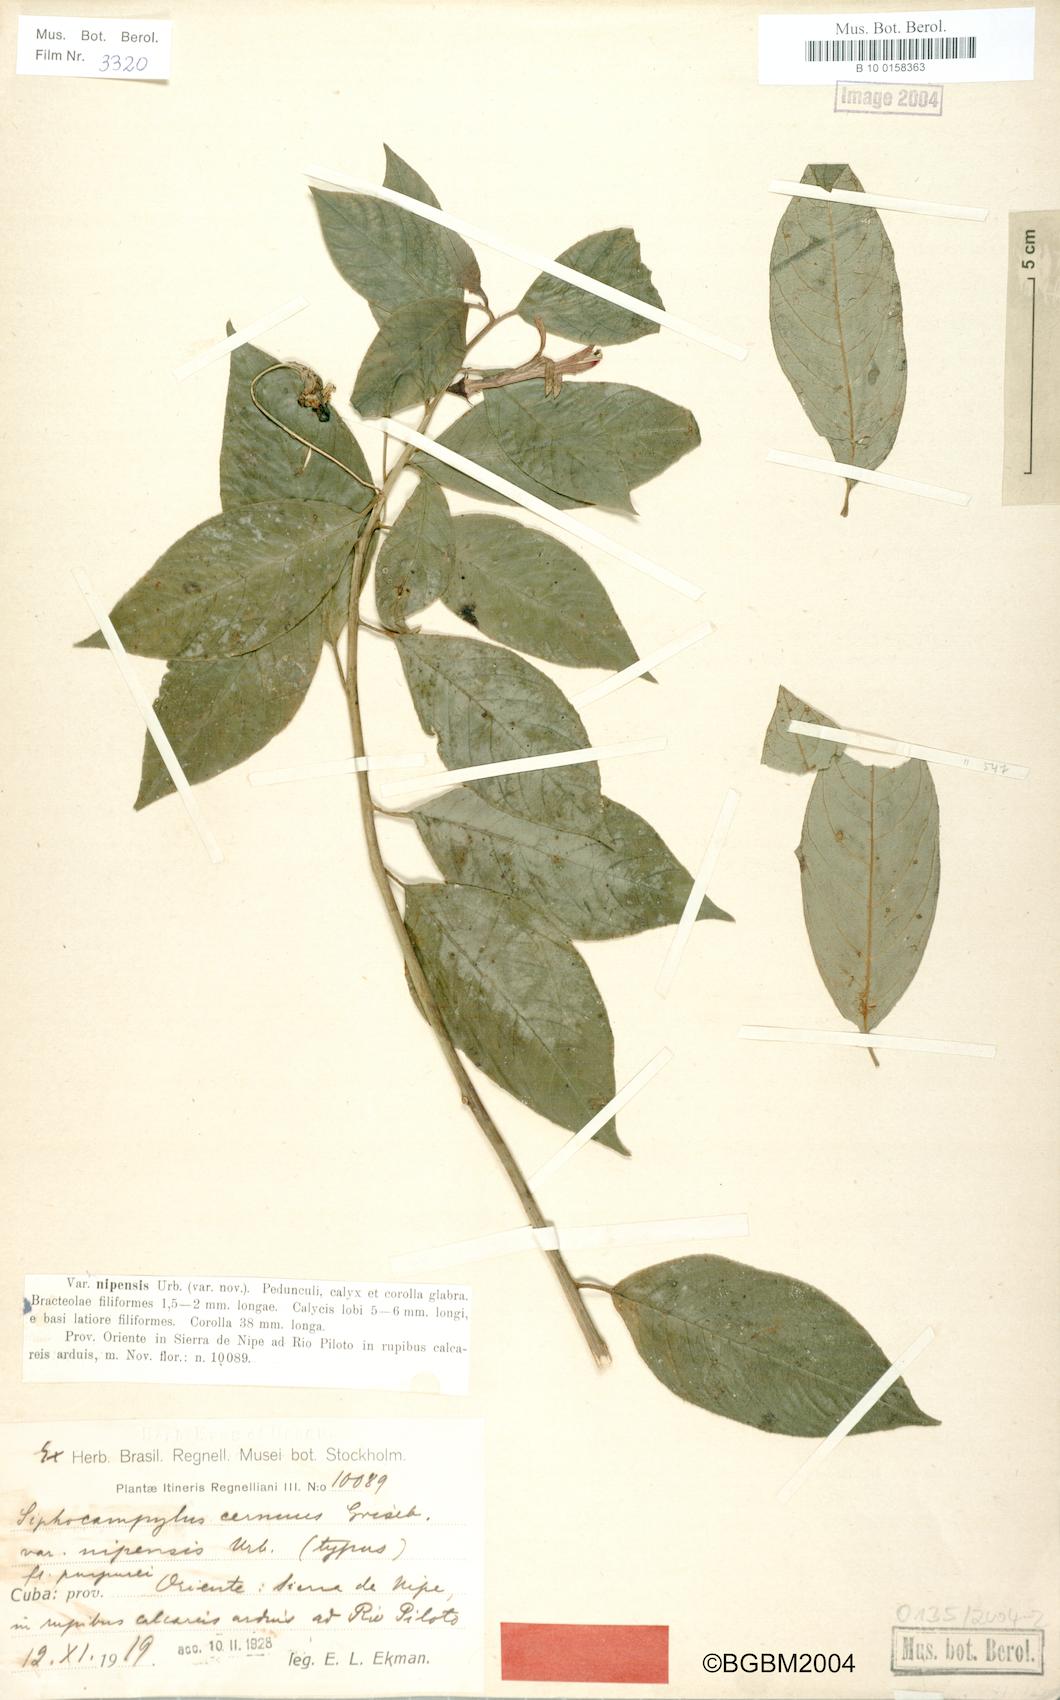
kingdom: Plantae
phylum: Tracheophyta
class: Magnoliopsida
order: Asterales
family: Campanulaceae
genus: Siphocampylus
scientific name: Siphocampylus cernuus
